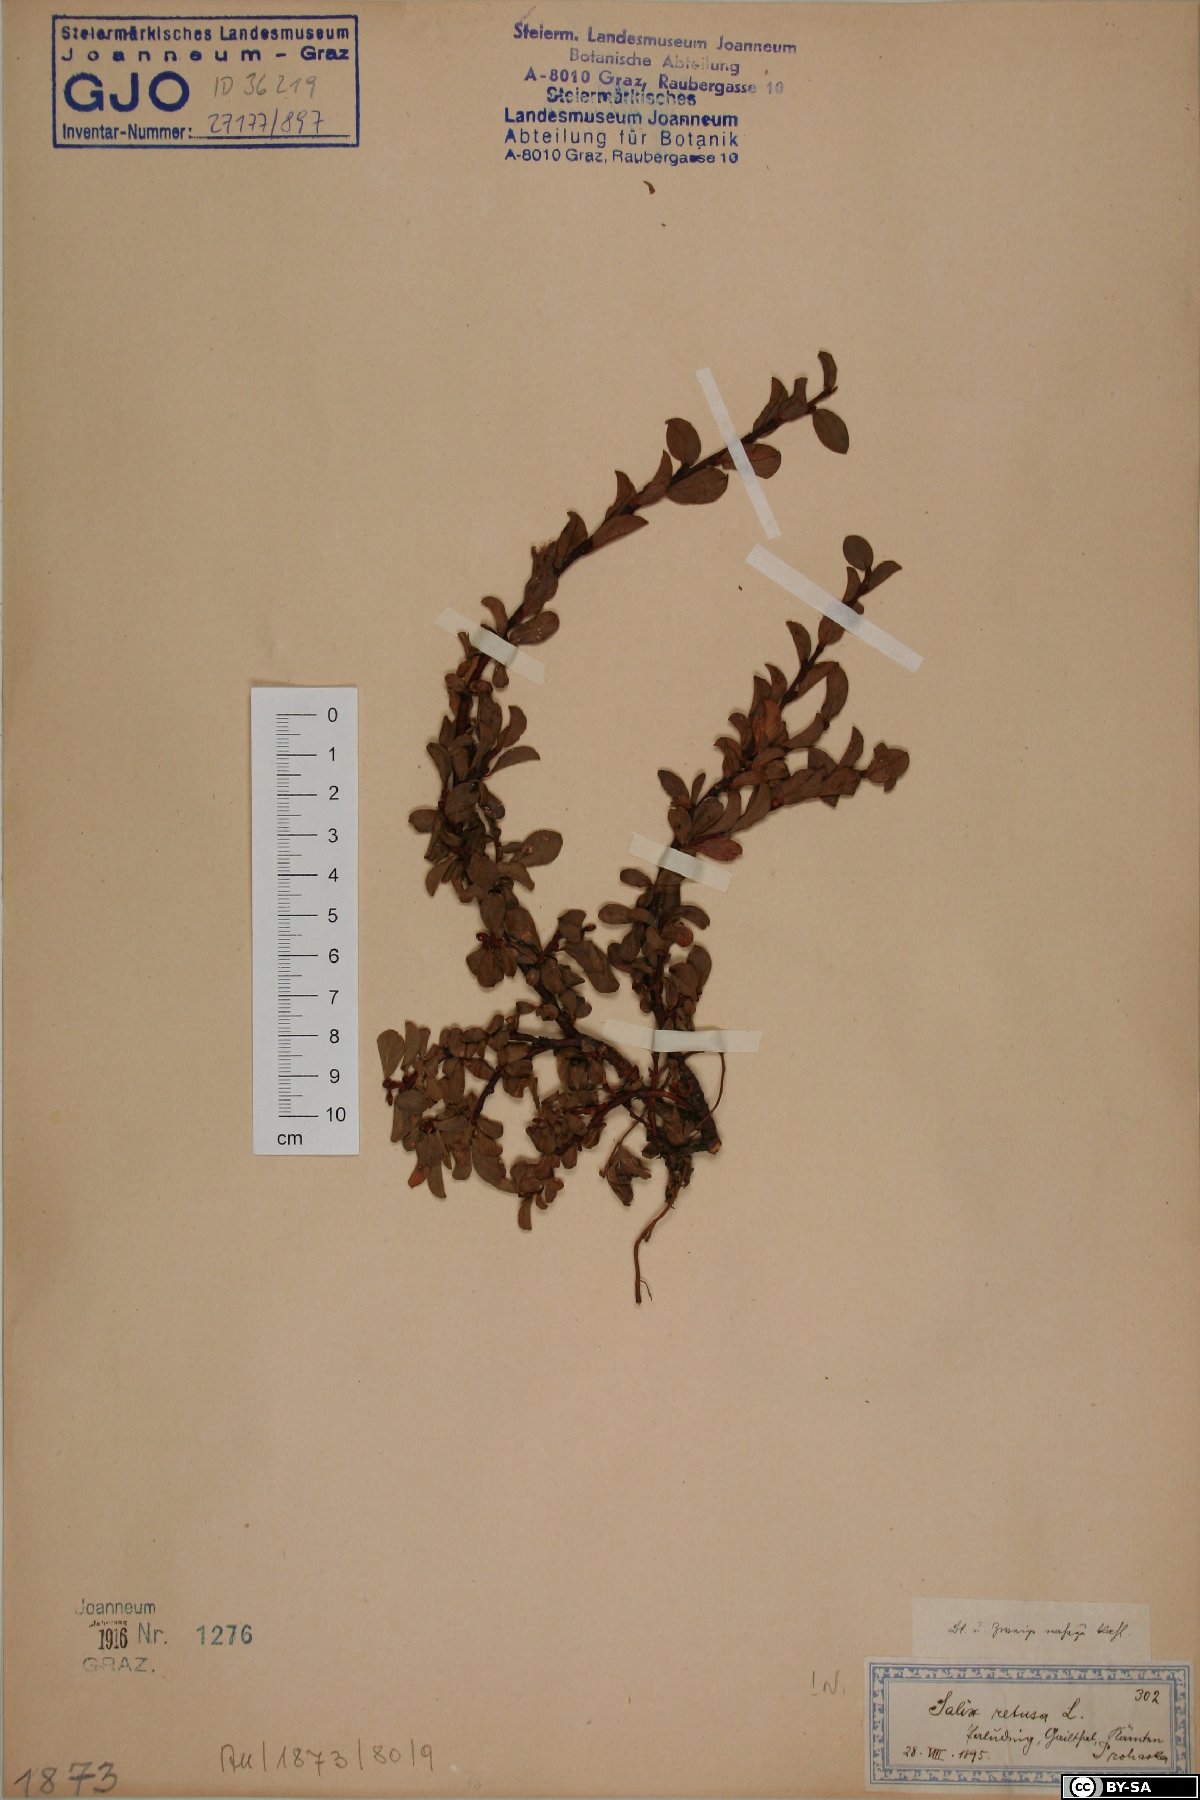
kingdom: Plantae
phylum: Tracheophyta
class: Magnoliopsida
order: Malpighiales
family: Salicaceae
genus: Salix
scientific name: Salix retusa
